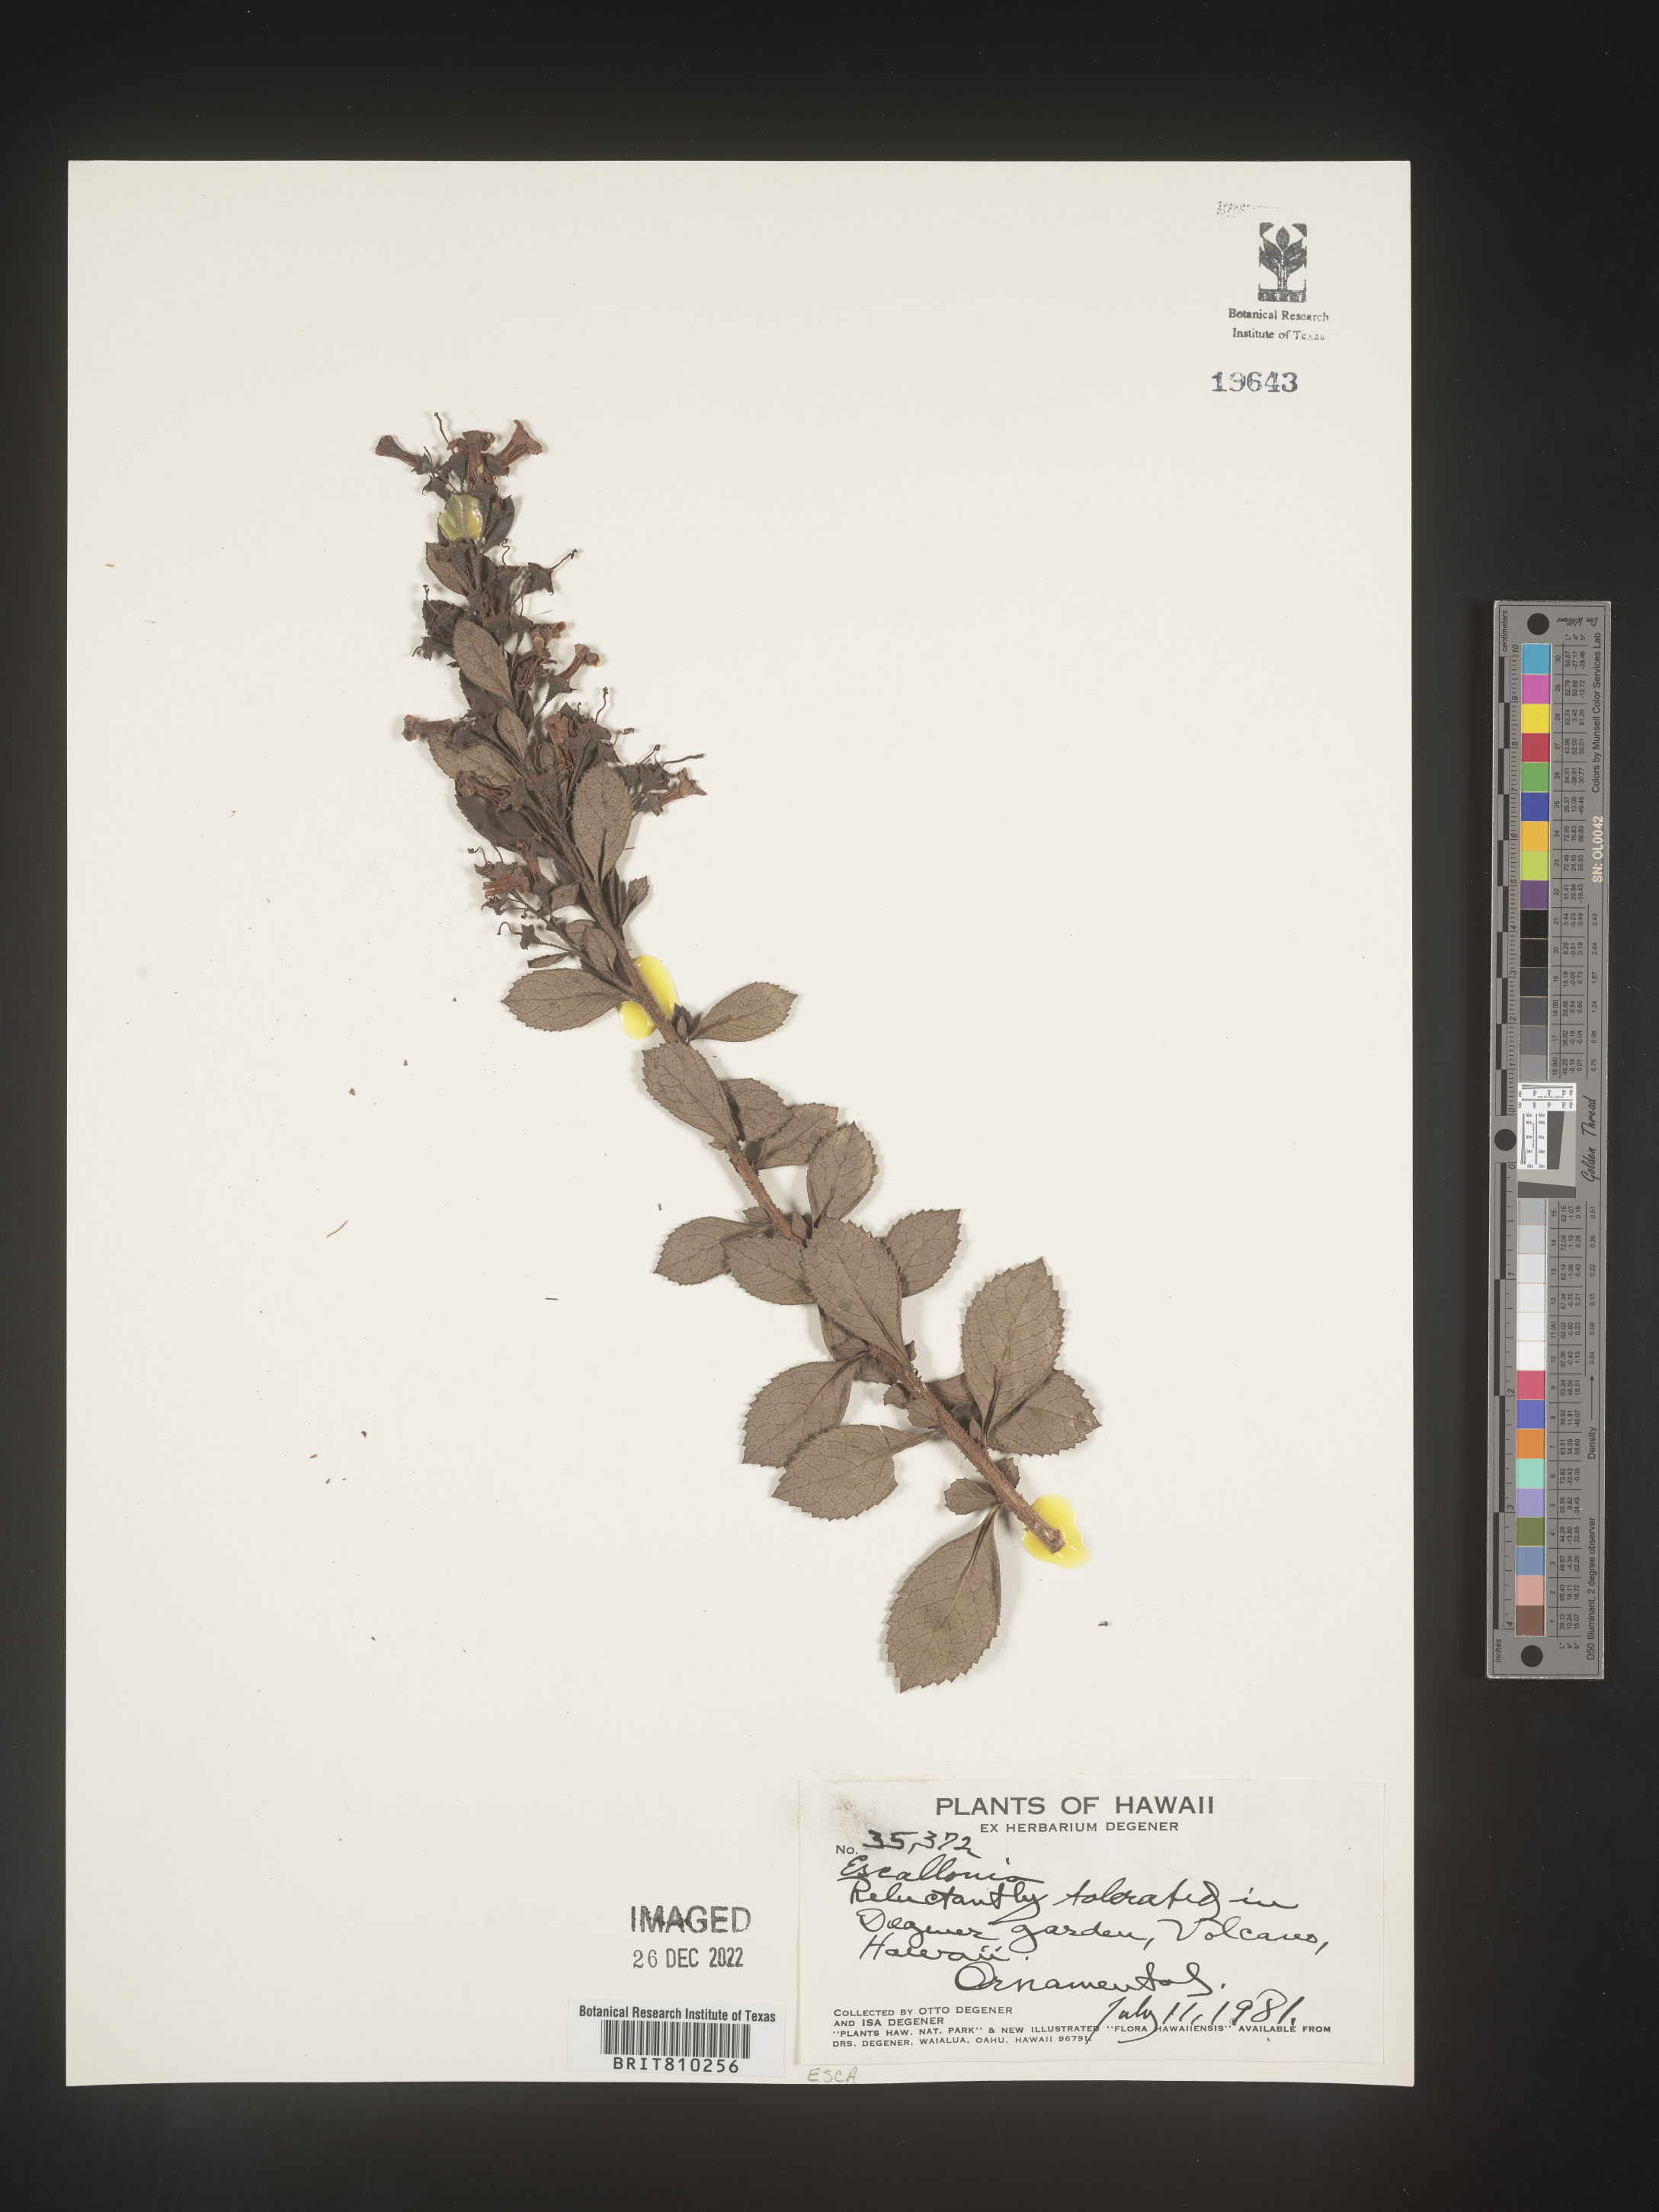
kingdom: Plantae
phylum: Tracheophyta
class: Magnoliopsida
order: Escalloniales
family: Escalloniaceae
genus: Escallonia
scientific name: Escallonia
